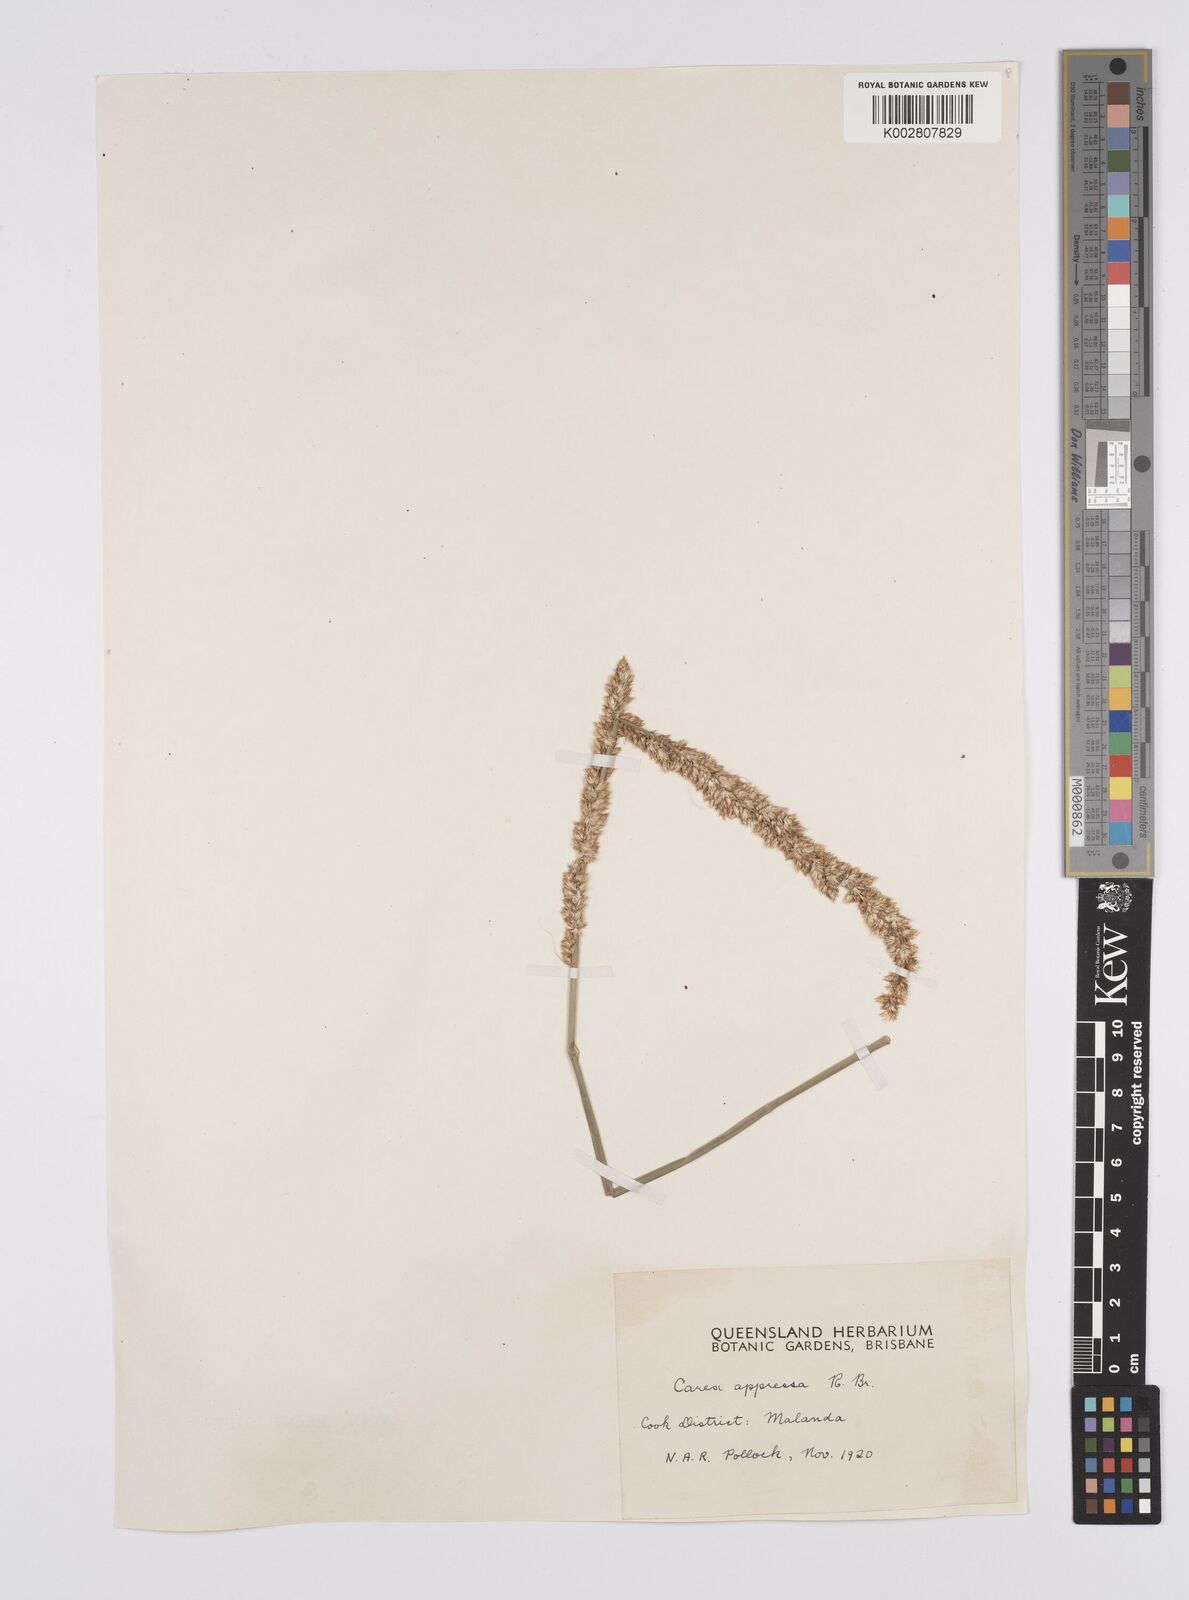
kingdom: Plantae
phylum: Tracheophyta
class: Liliopsida
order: Poales
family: Cyperaceae
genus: Carex
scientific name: Carex appressa
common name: Tussock sedge
